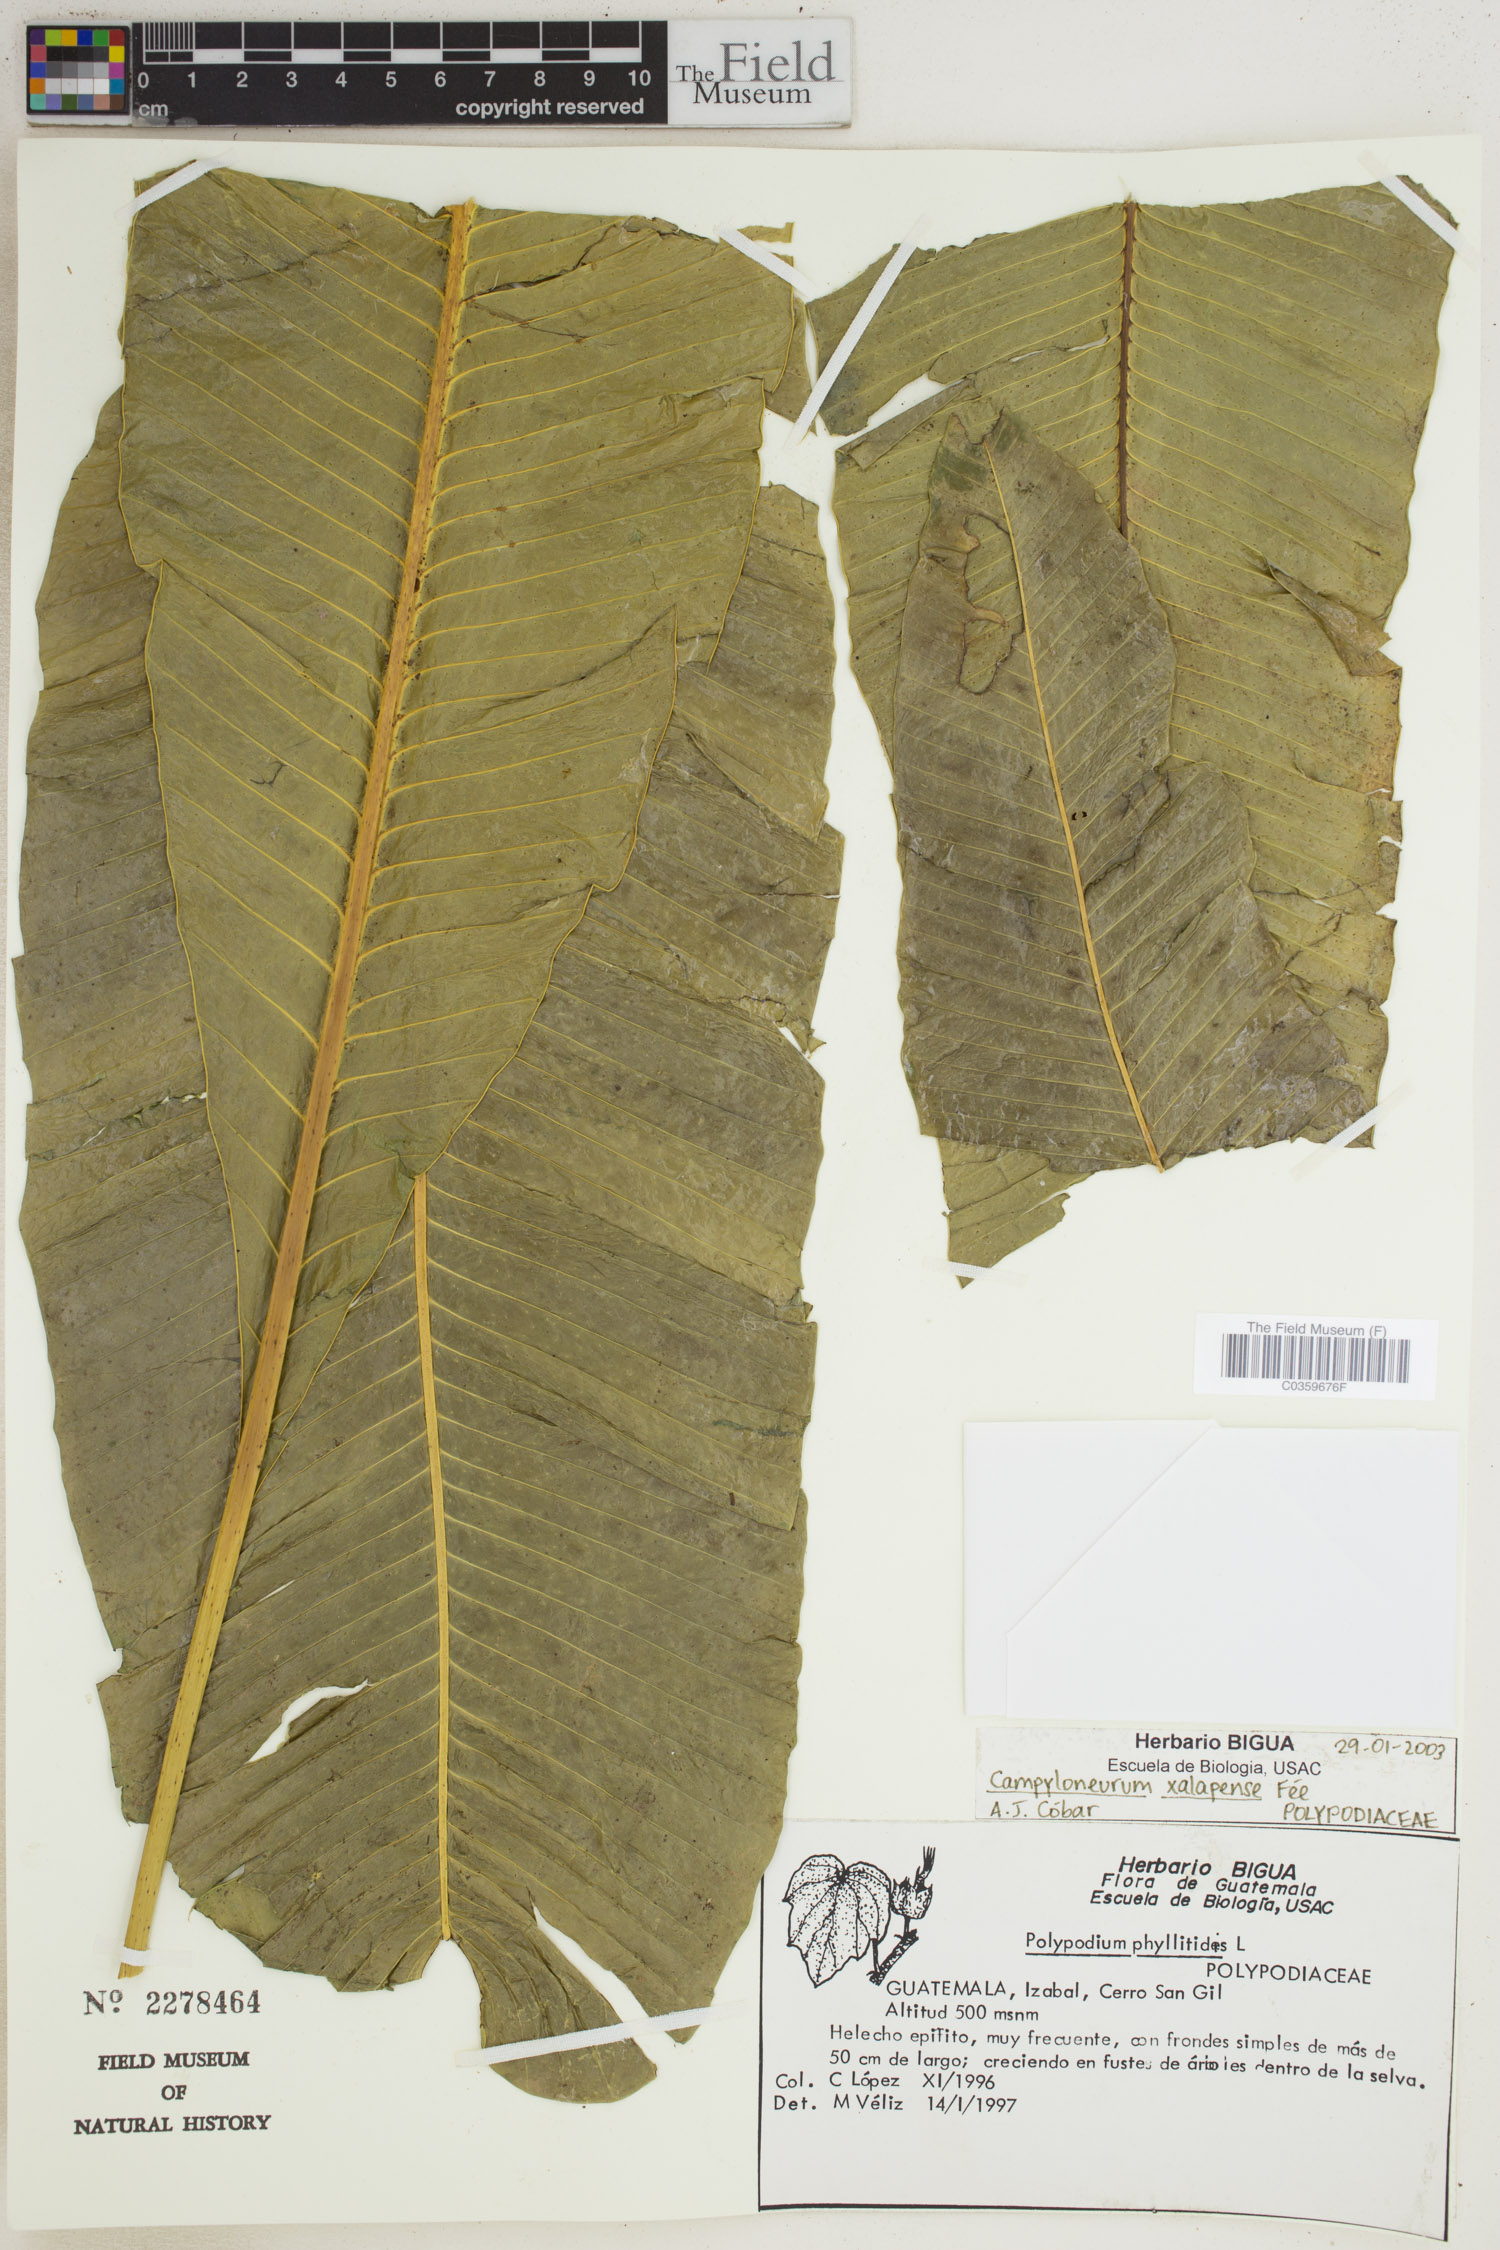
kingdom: Plantae
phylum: Tracheophyta
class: Polypodiopsida
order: Polypodiales
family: Polypodiaceae
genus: Campyloneurum
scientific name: Campyloneurum xalapense
